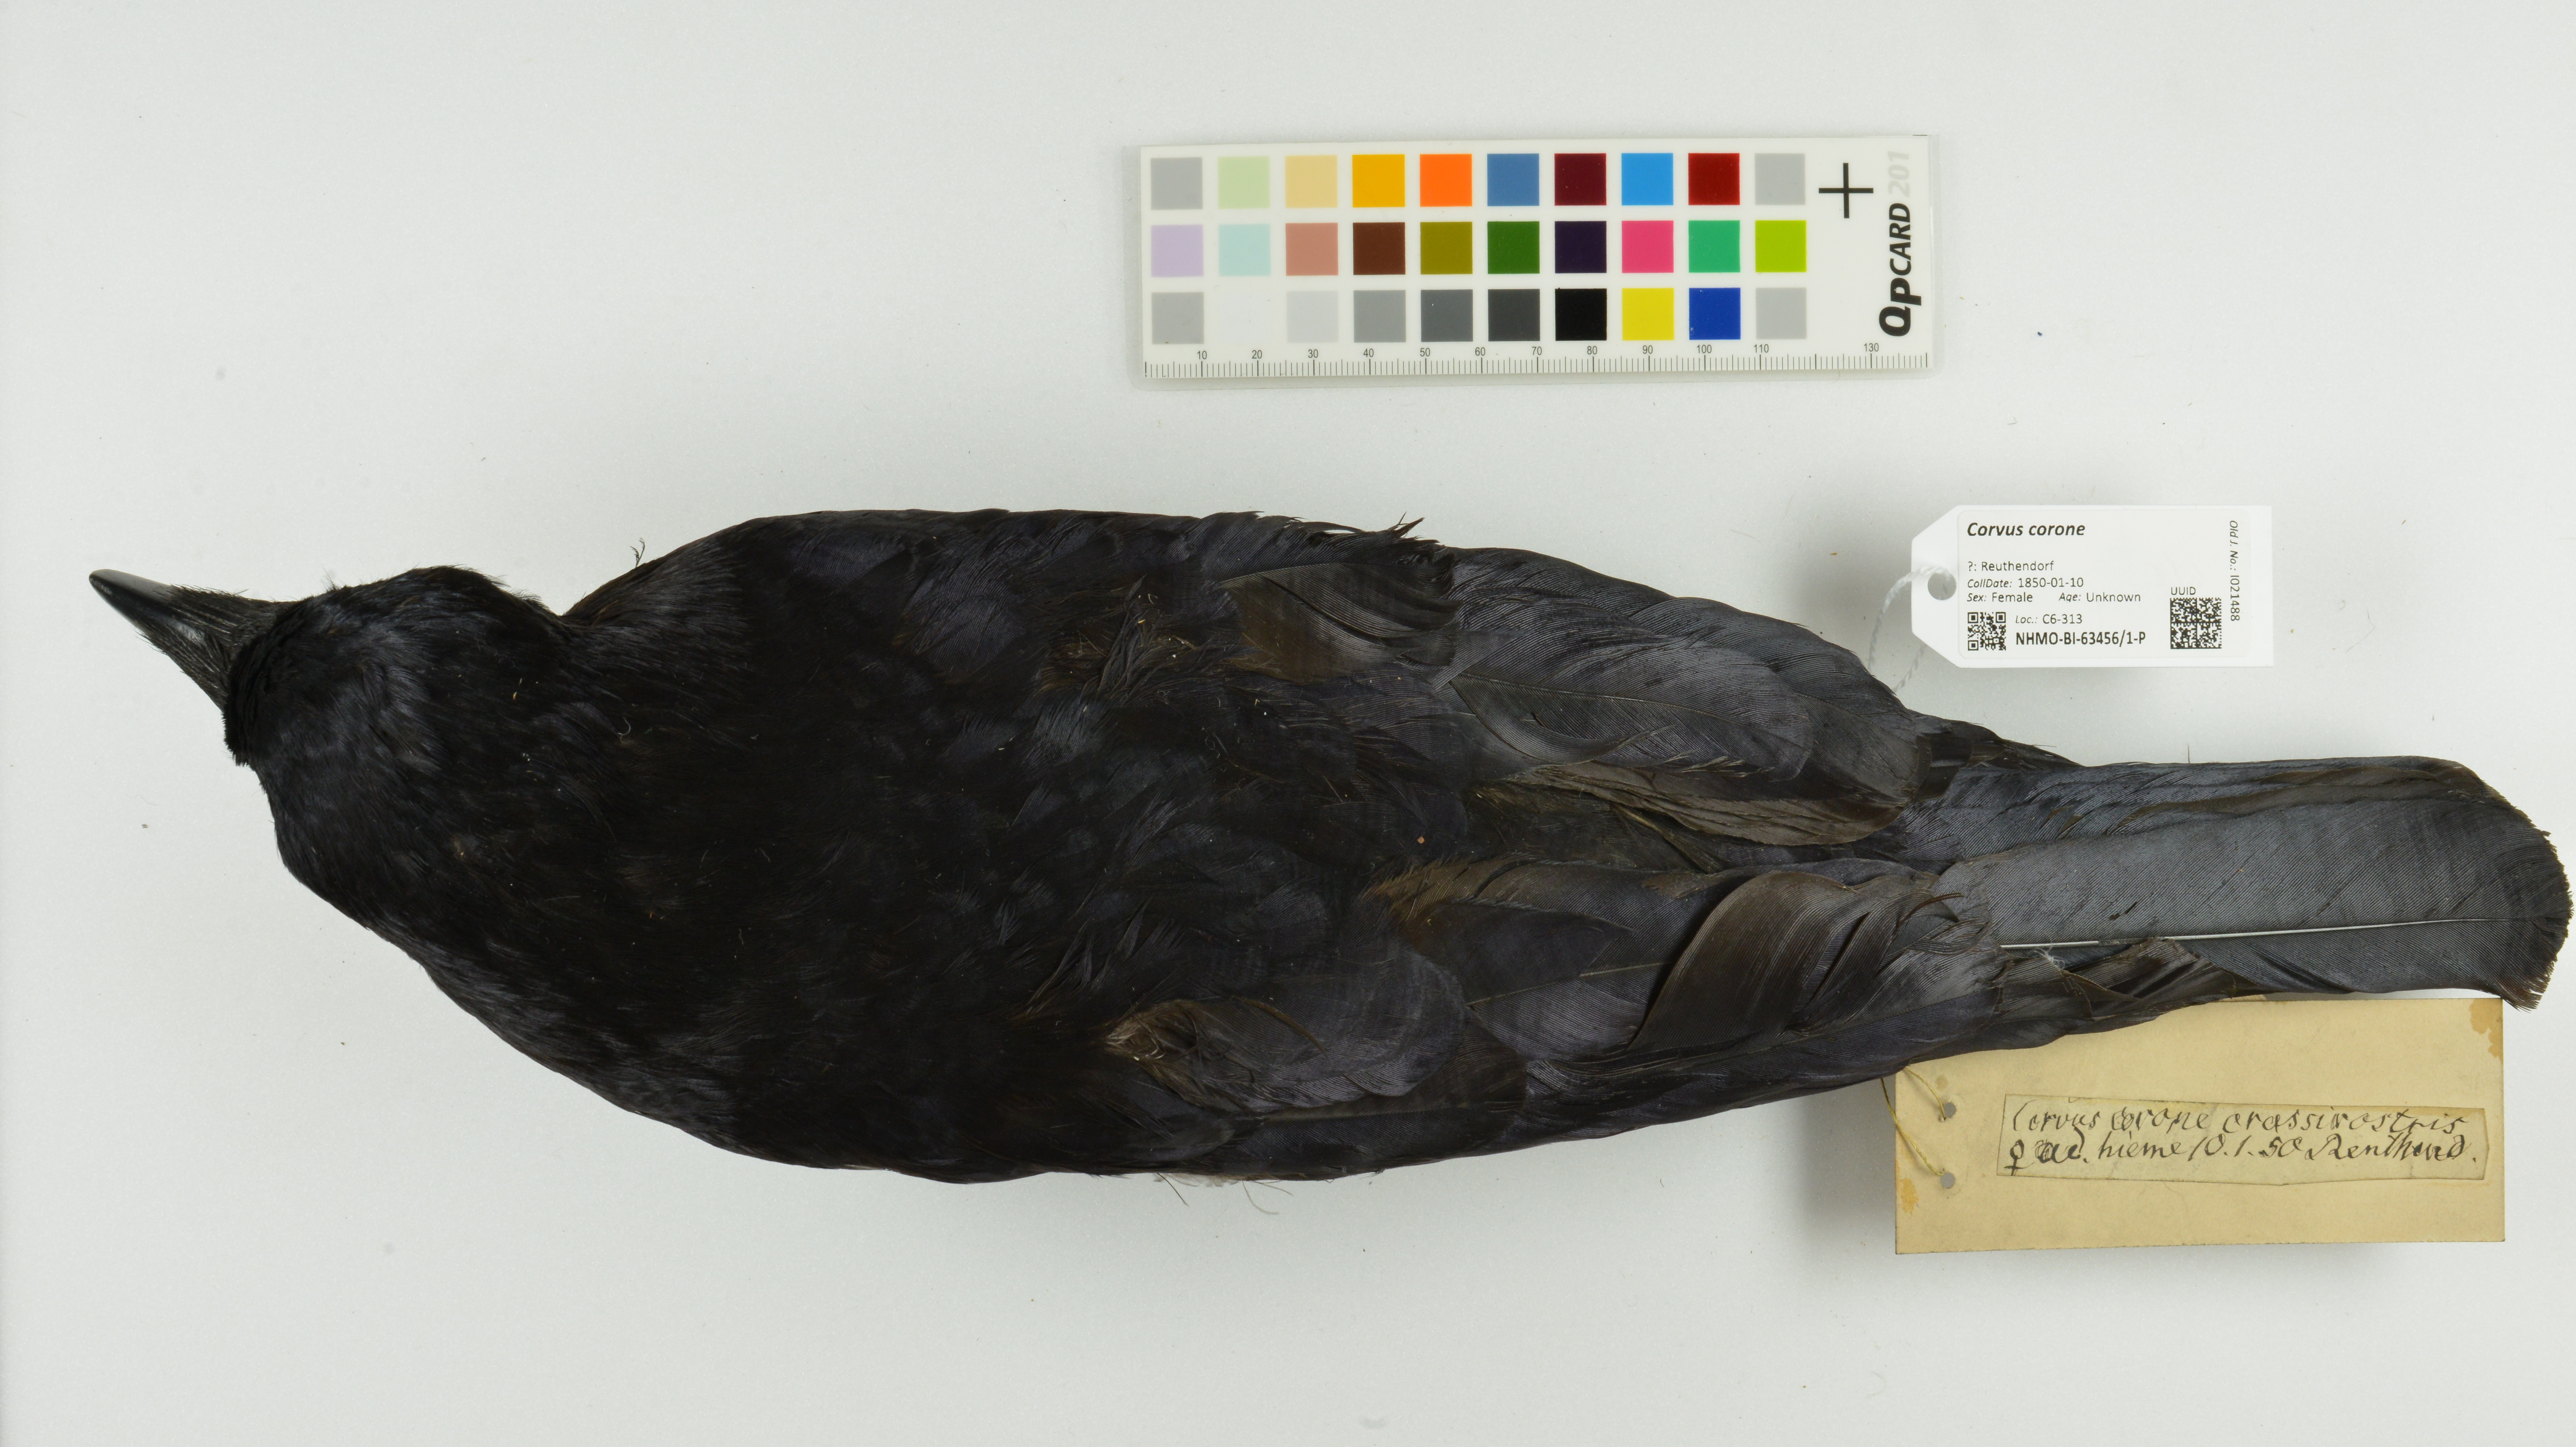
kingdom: Animalia
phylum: Chordata
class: Aves
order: Passeriformes
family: Corvidae
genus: Corvus
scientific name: Corvus corone
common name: Carrion crow
